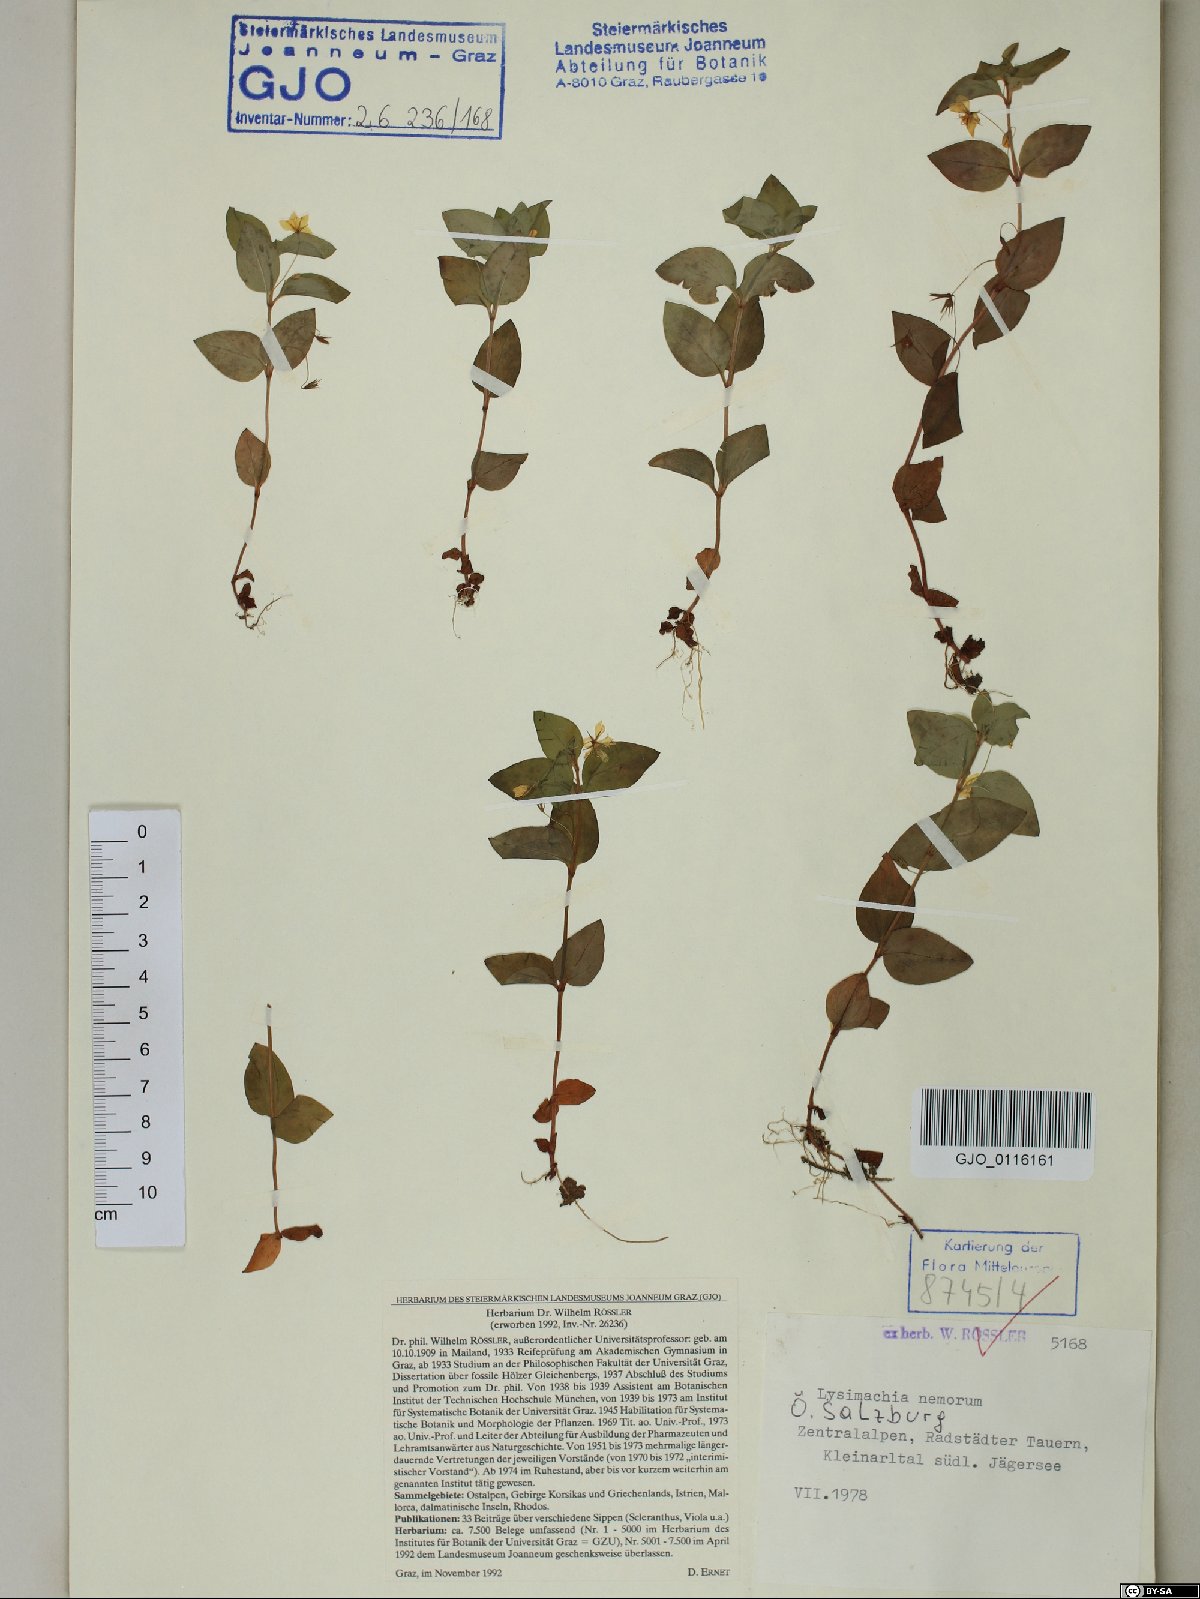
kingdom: Plantae
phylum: Tracheophyta
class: Magnoliopsida
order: Ericales
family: Primulaceae
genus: Lysimachia
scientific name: Lysimachia nemorum
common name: Yellow pimpernel
